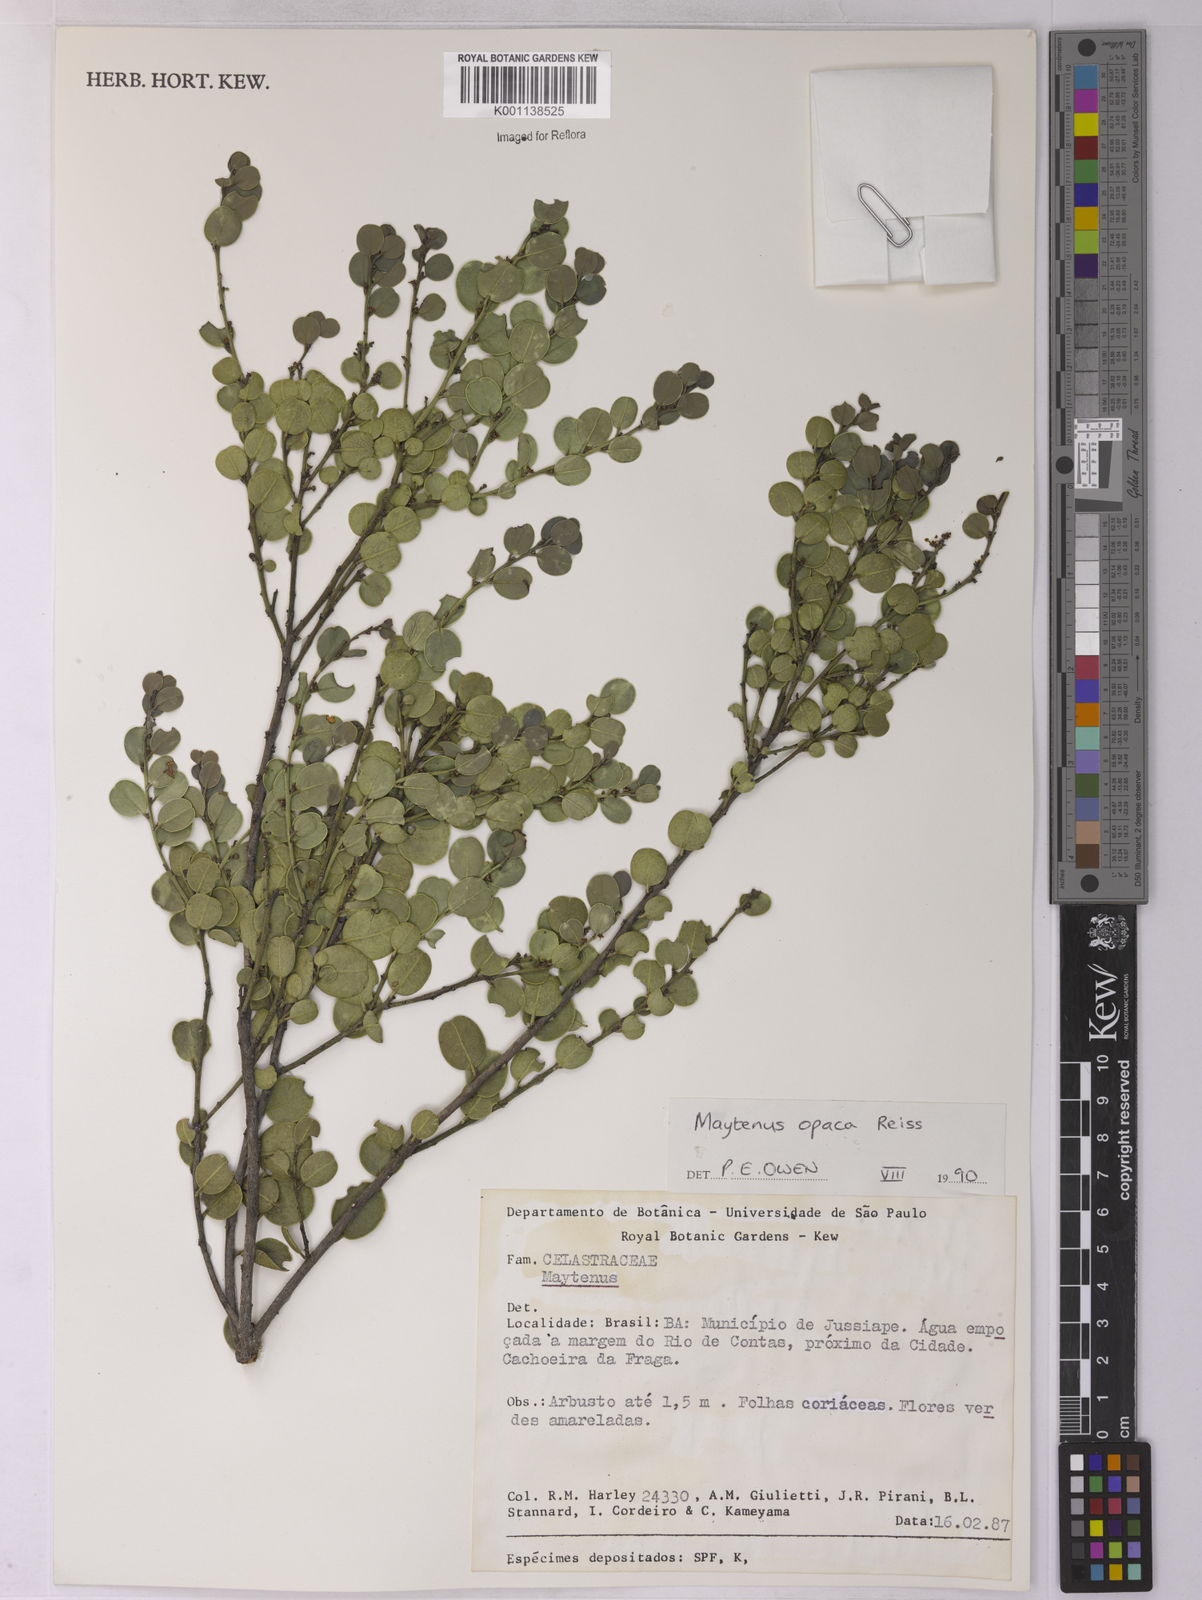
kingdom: Plantae
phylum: Tracheophyta
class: Magnoliopsida
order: Celastrales
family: Celastraceae
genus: Monteverdia
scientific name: Monteverdia opaca
